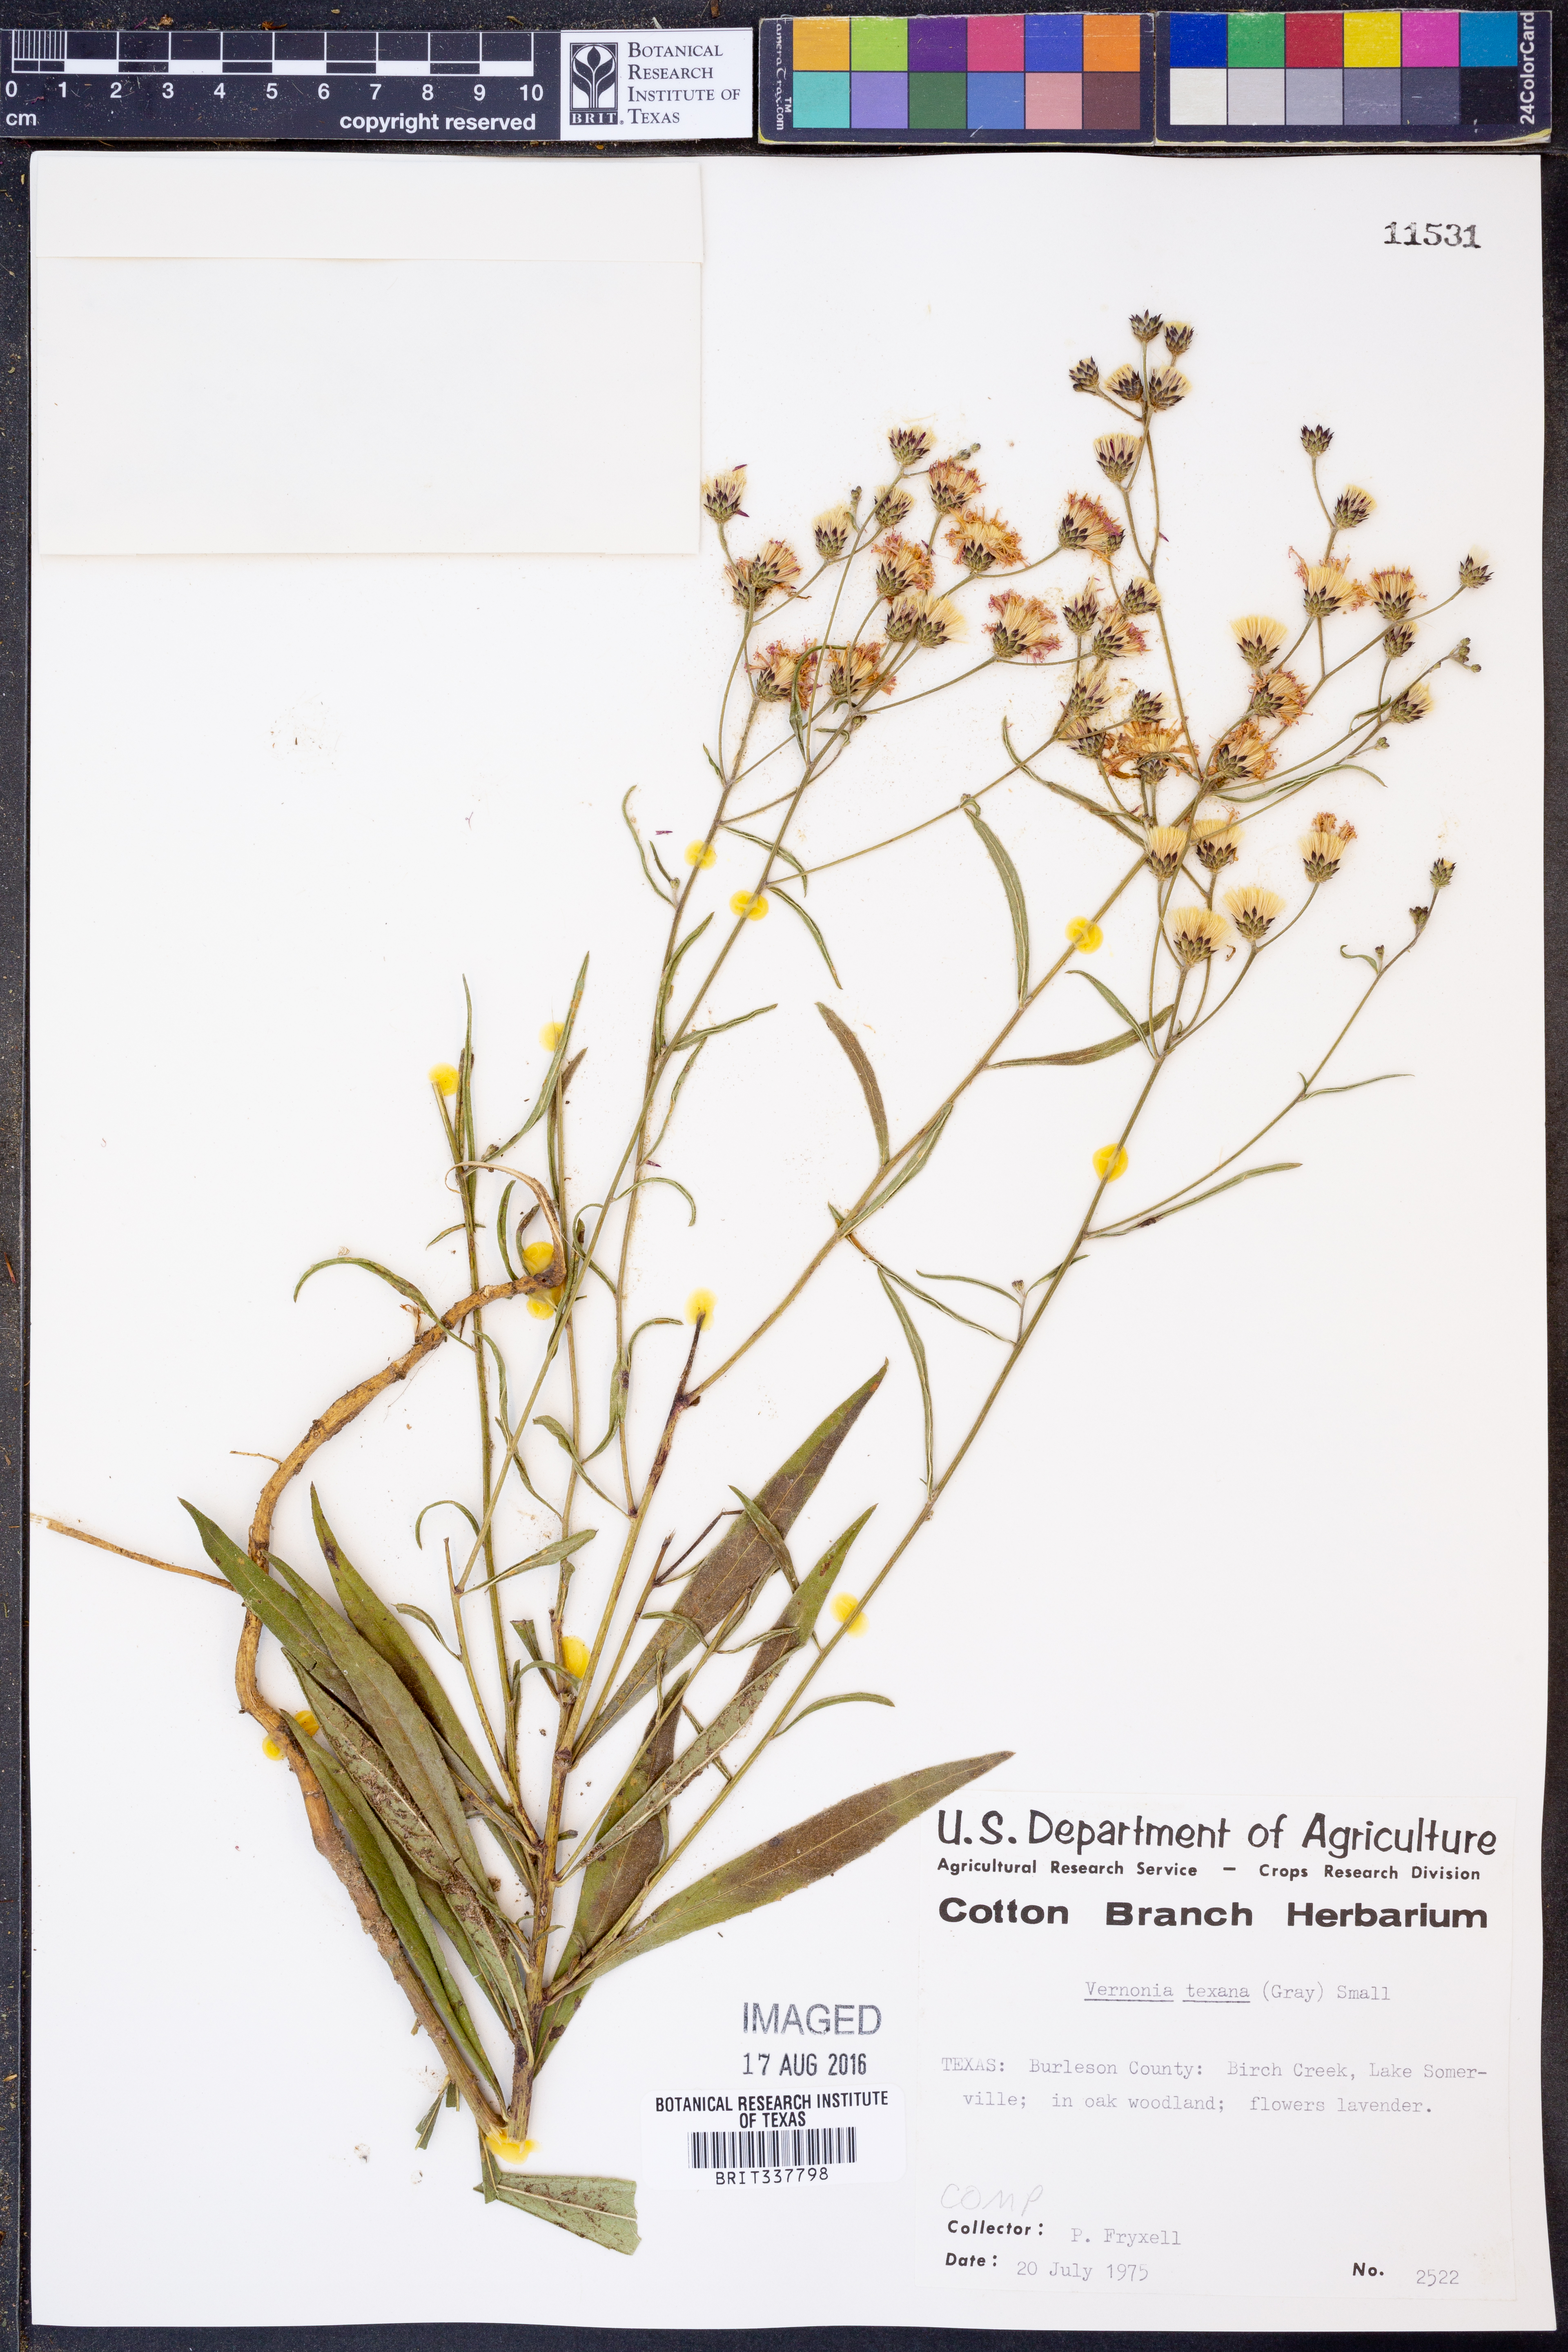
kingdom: Plantae
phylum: Tracheophyta
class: Magnoliopsida
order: Asterales
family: Asteraceae
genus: Vernonia
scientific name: Vernonia texana
